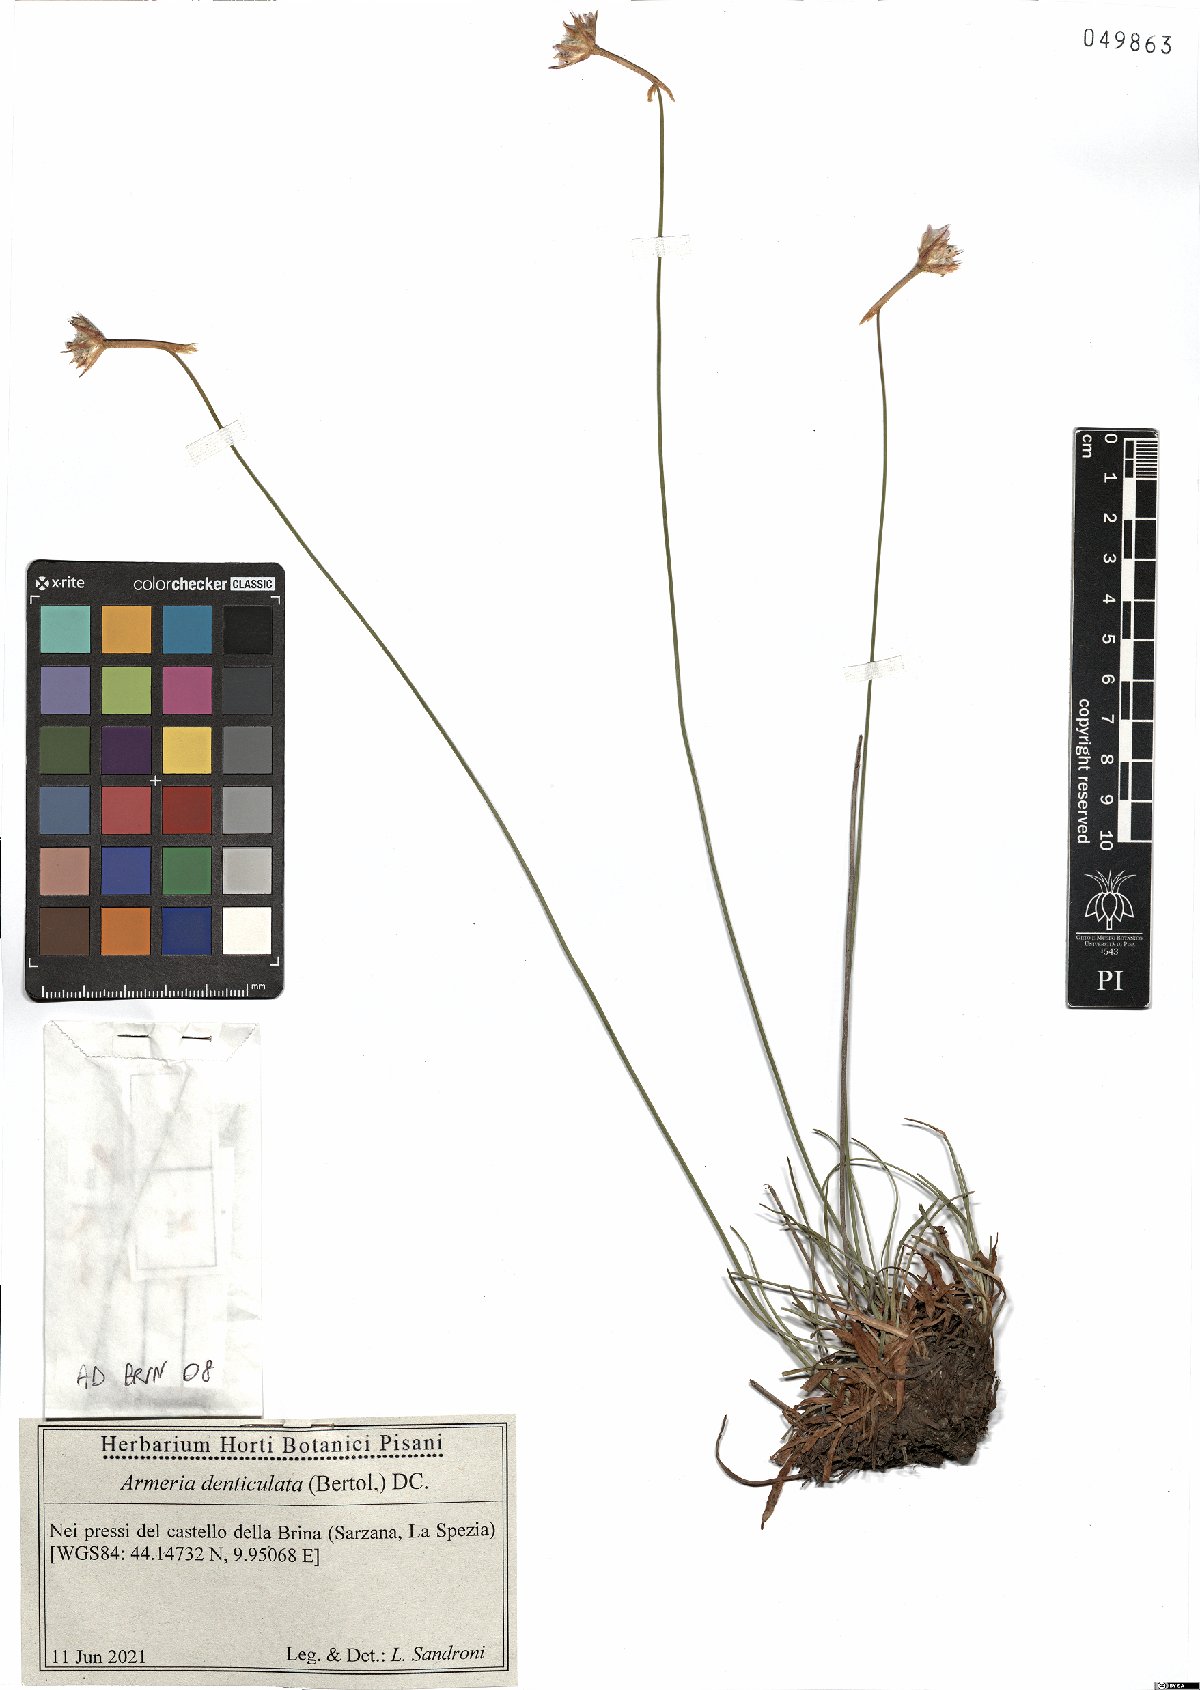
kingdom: Plantae
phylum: Tracheophyta
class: Magnoliopsida
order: Caryophyllales
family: Plumbaginaceae
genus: Armeria
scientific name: Armeria denticulata
